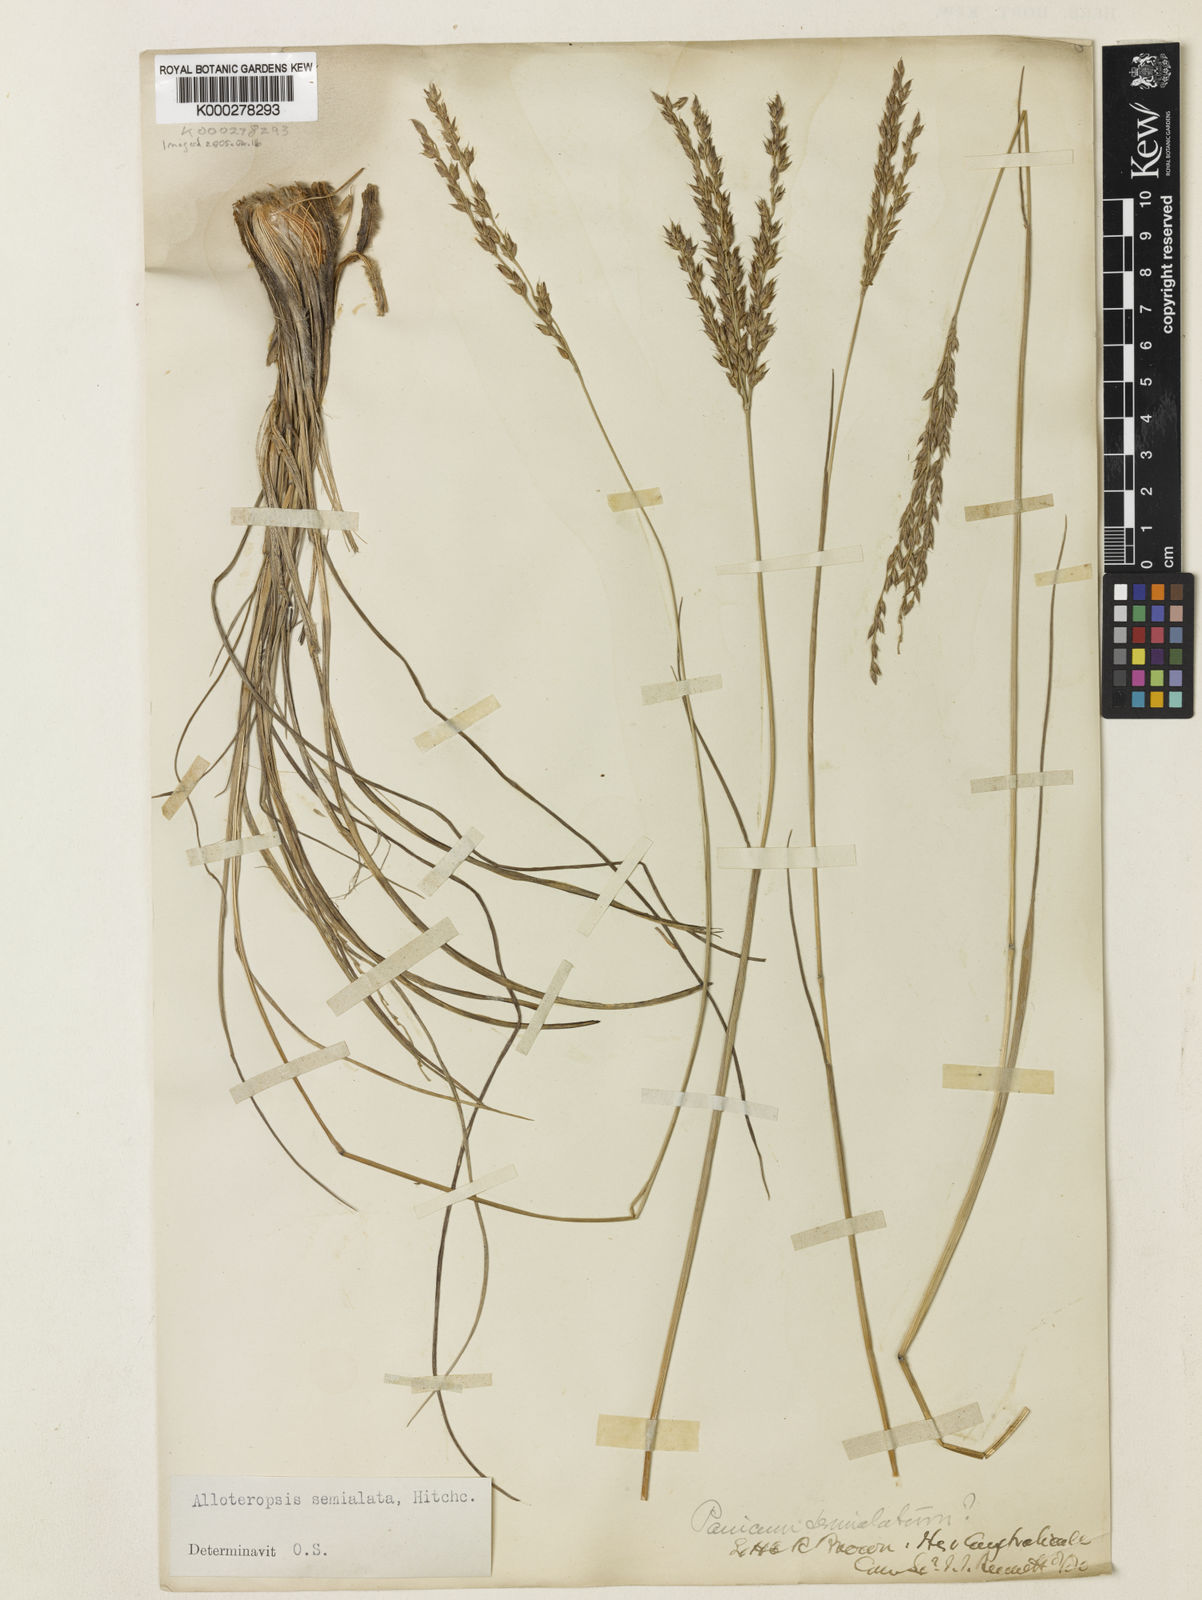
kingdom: Plantae
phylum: Tracheophyta
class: Liliopsida
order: Poales
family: Poaceae
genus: Alloteropsis
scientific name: Alloteropsis semialata
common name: Cockatoo grass
